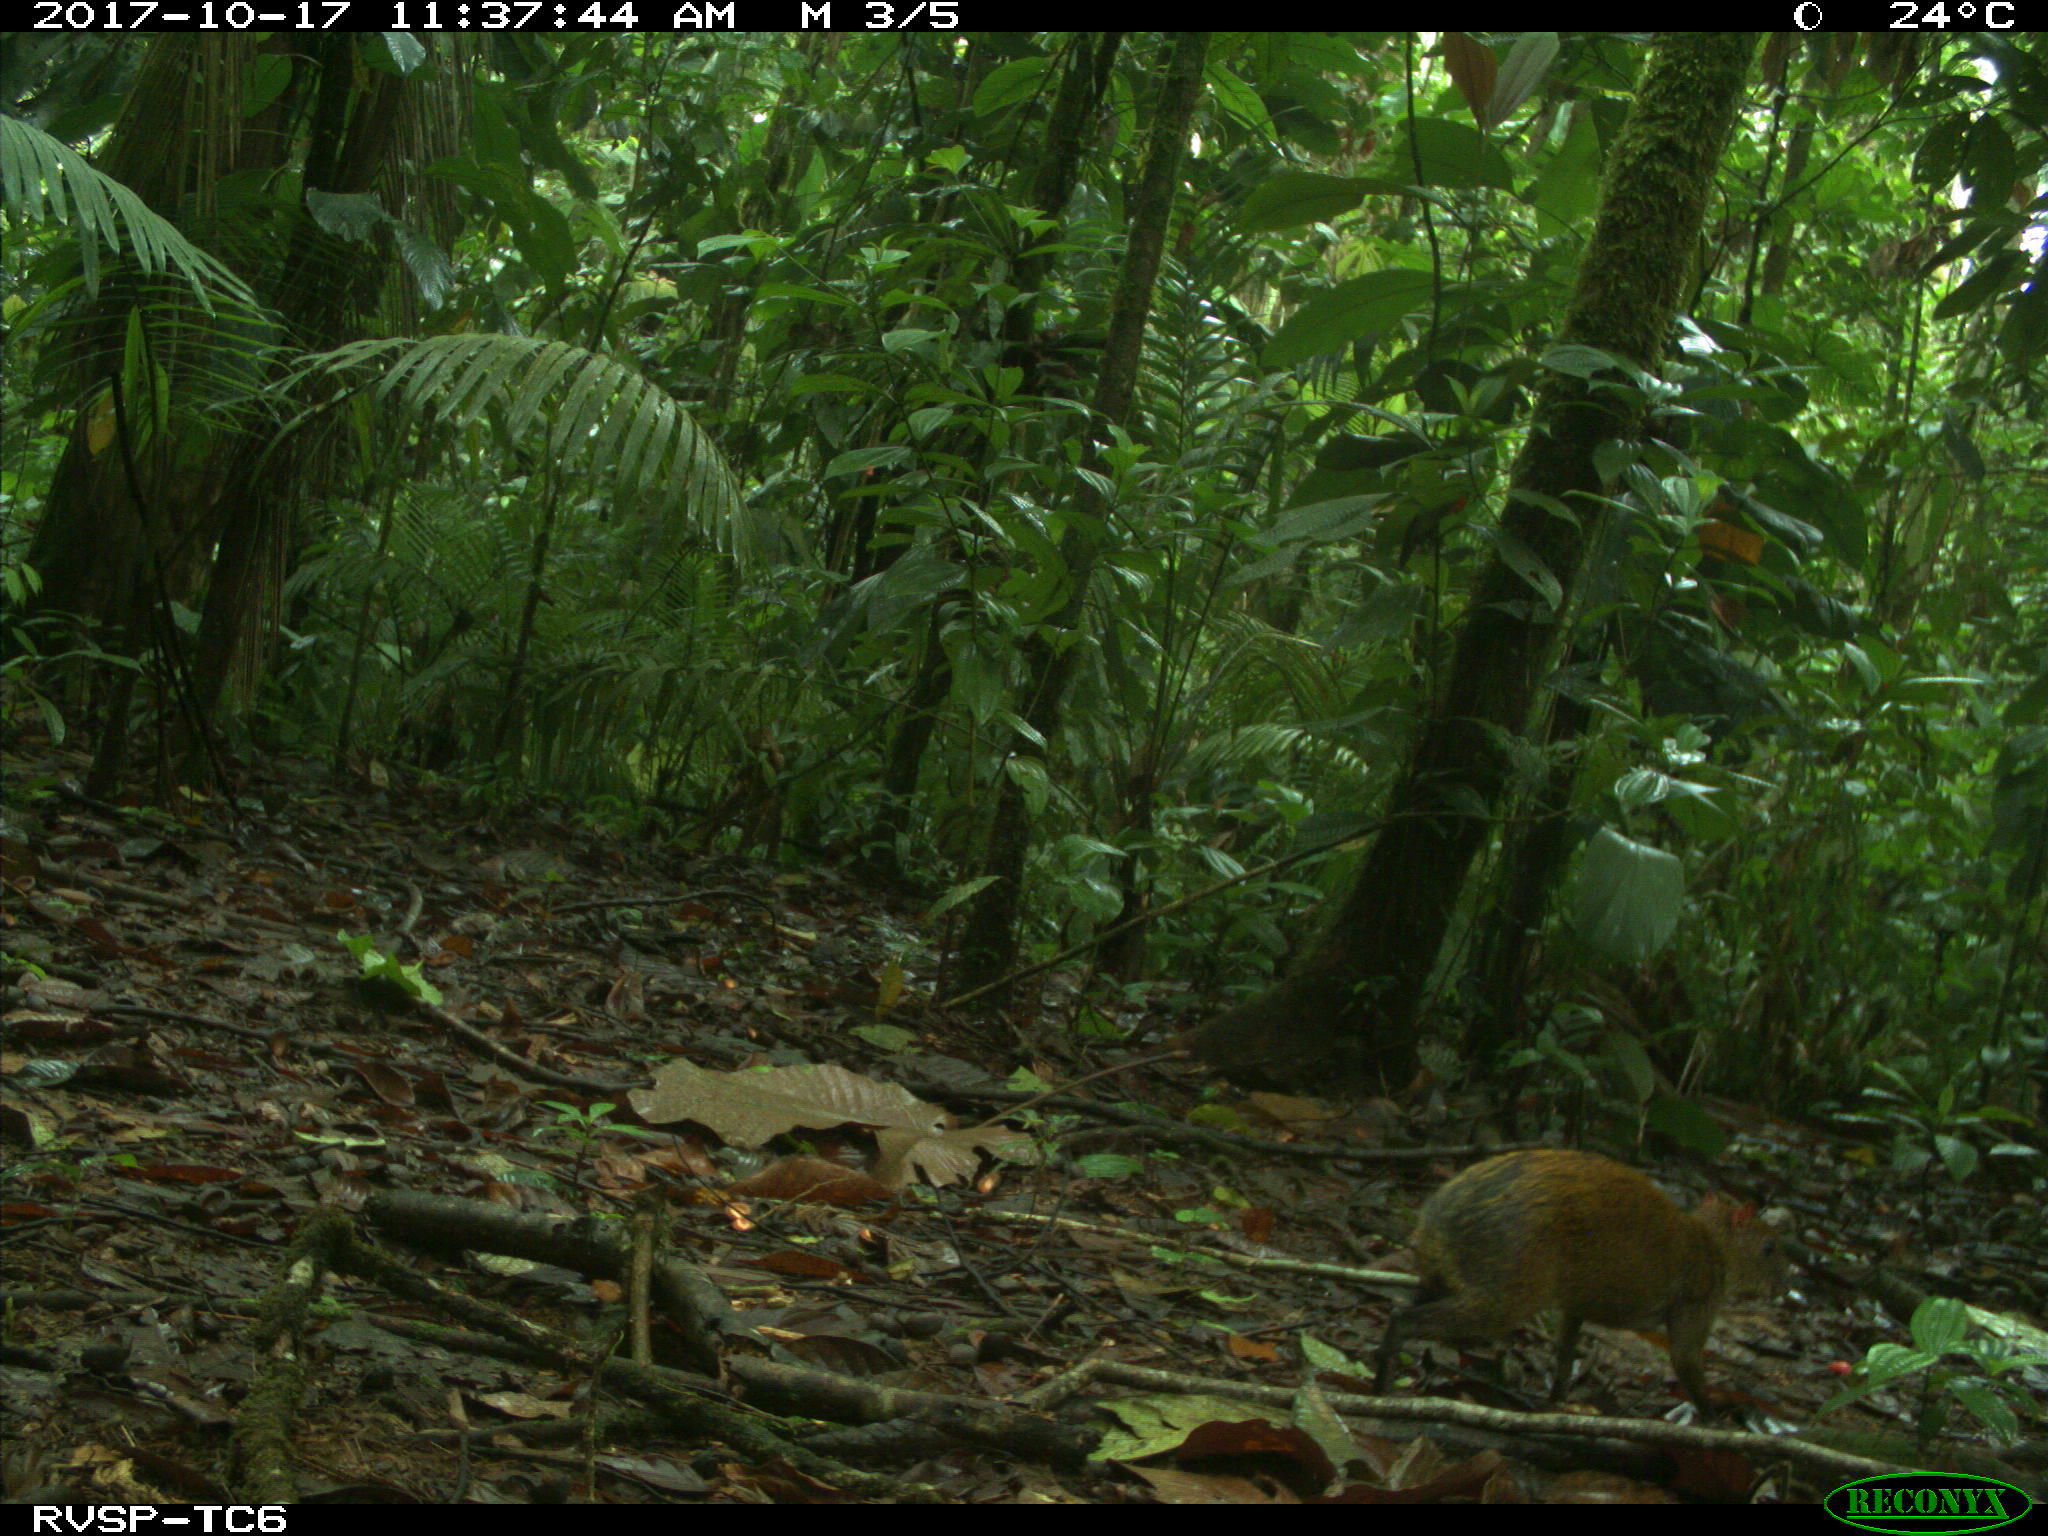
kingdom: Animalia
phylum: Chordata
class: Mammalia
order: Rodentia
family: Dasyproctidae
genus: Dasyprocta
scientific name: Dasyprocta punctata
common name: Central american agouti
